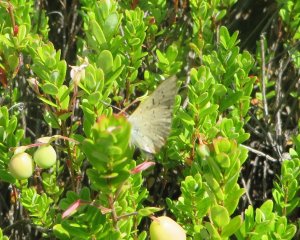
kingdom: Animalia
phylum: Arthropoda
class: Insecta
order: Lepidoptera
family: Sesiidae
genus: Sesia
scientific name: Sesia Lycaena epixanthe
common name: Bog Copper
